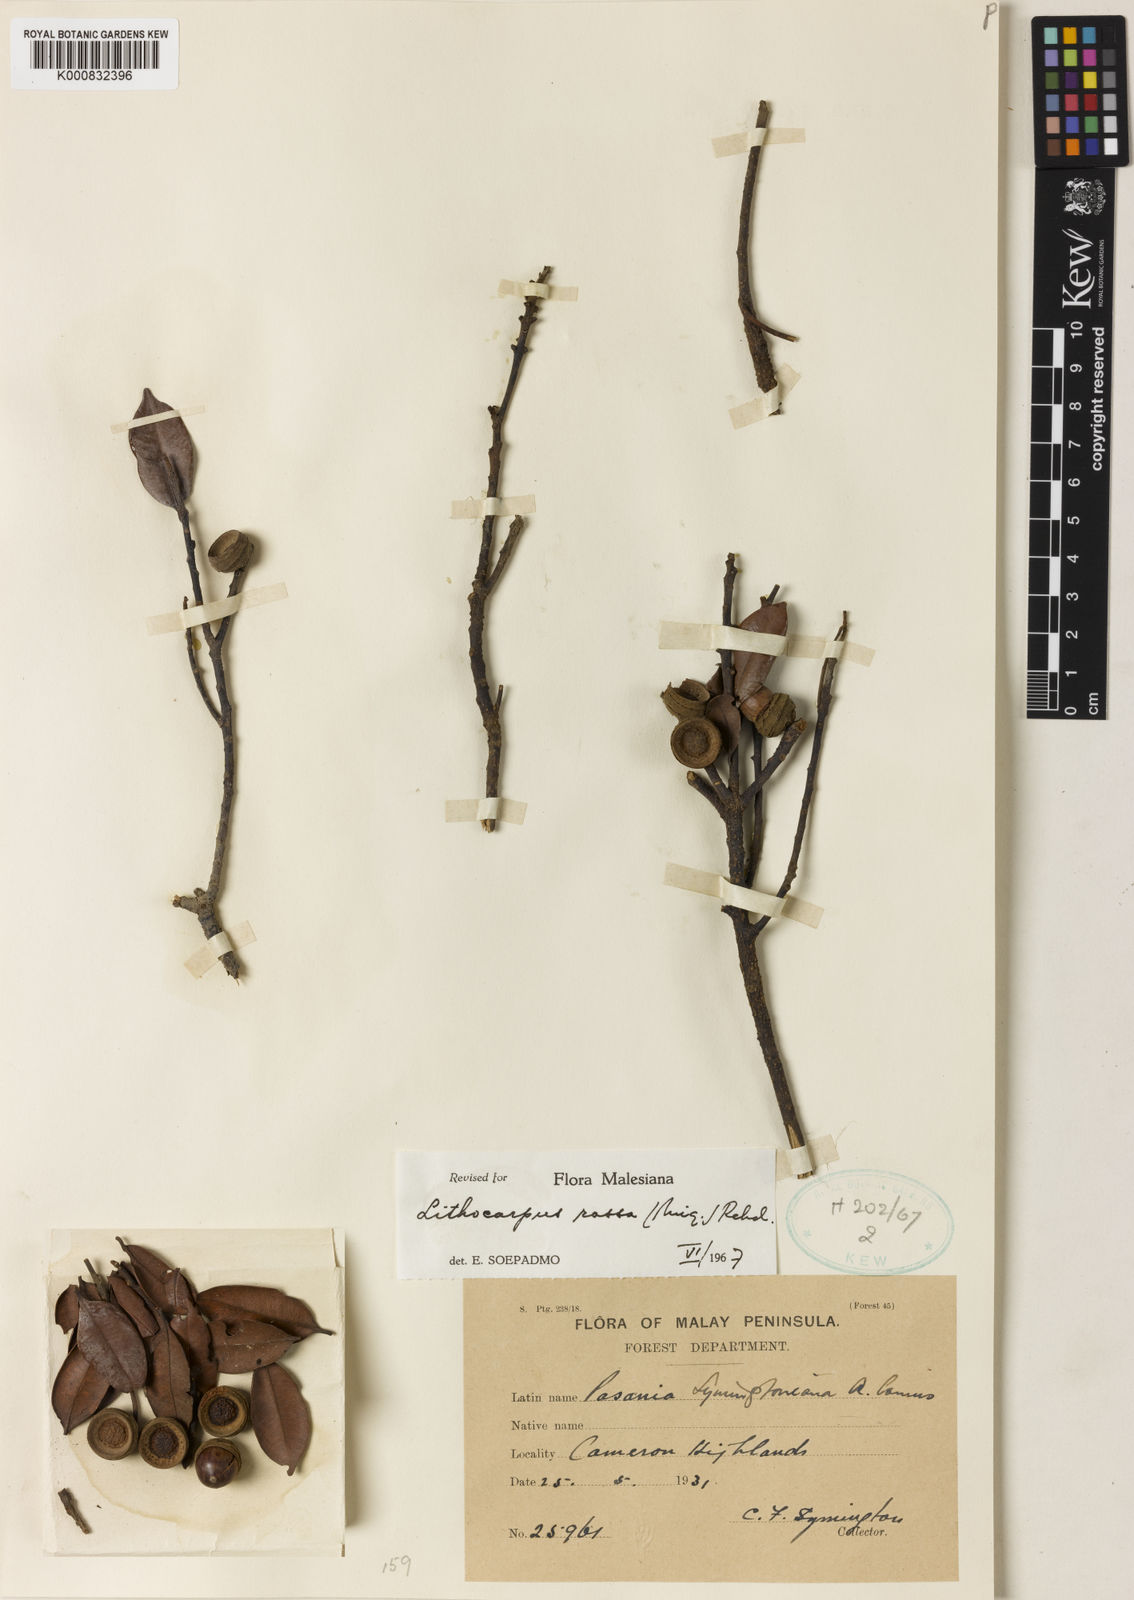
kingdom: Plantae
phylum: Tracheophyta
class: Magnoliopsida
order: Fagales
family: Fagaceae
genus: Lithocarpus
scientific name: Lithocarpus rassa
